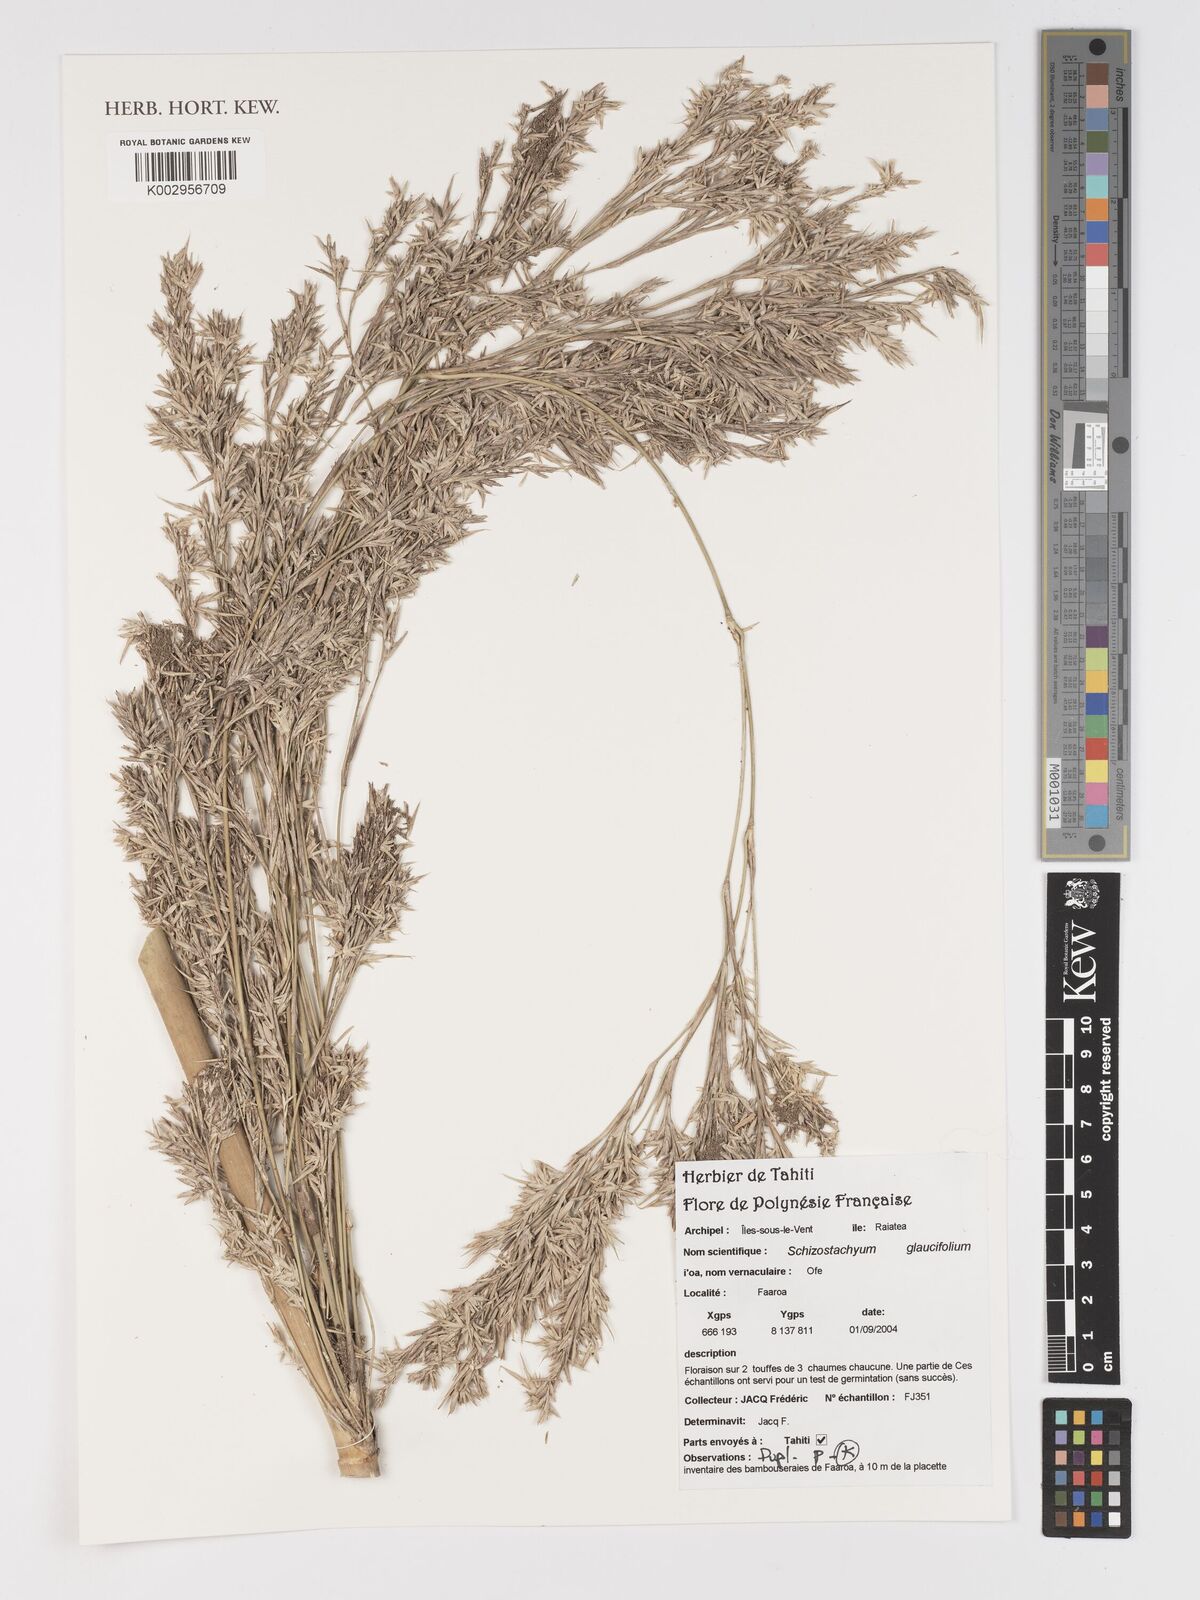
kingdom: Plantae
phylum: Tracheophyta
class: Liliopsida
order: Poales
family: Poaceae
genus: Schizostachyum
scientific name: Schizostachyum glaucifolium
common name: Polynesian 'ohe
